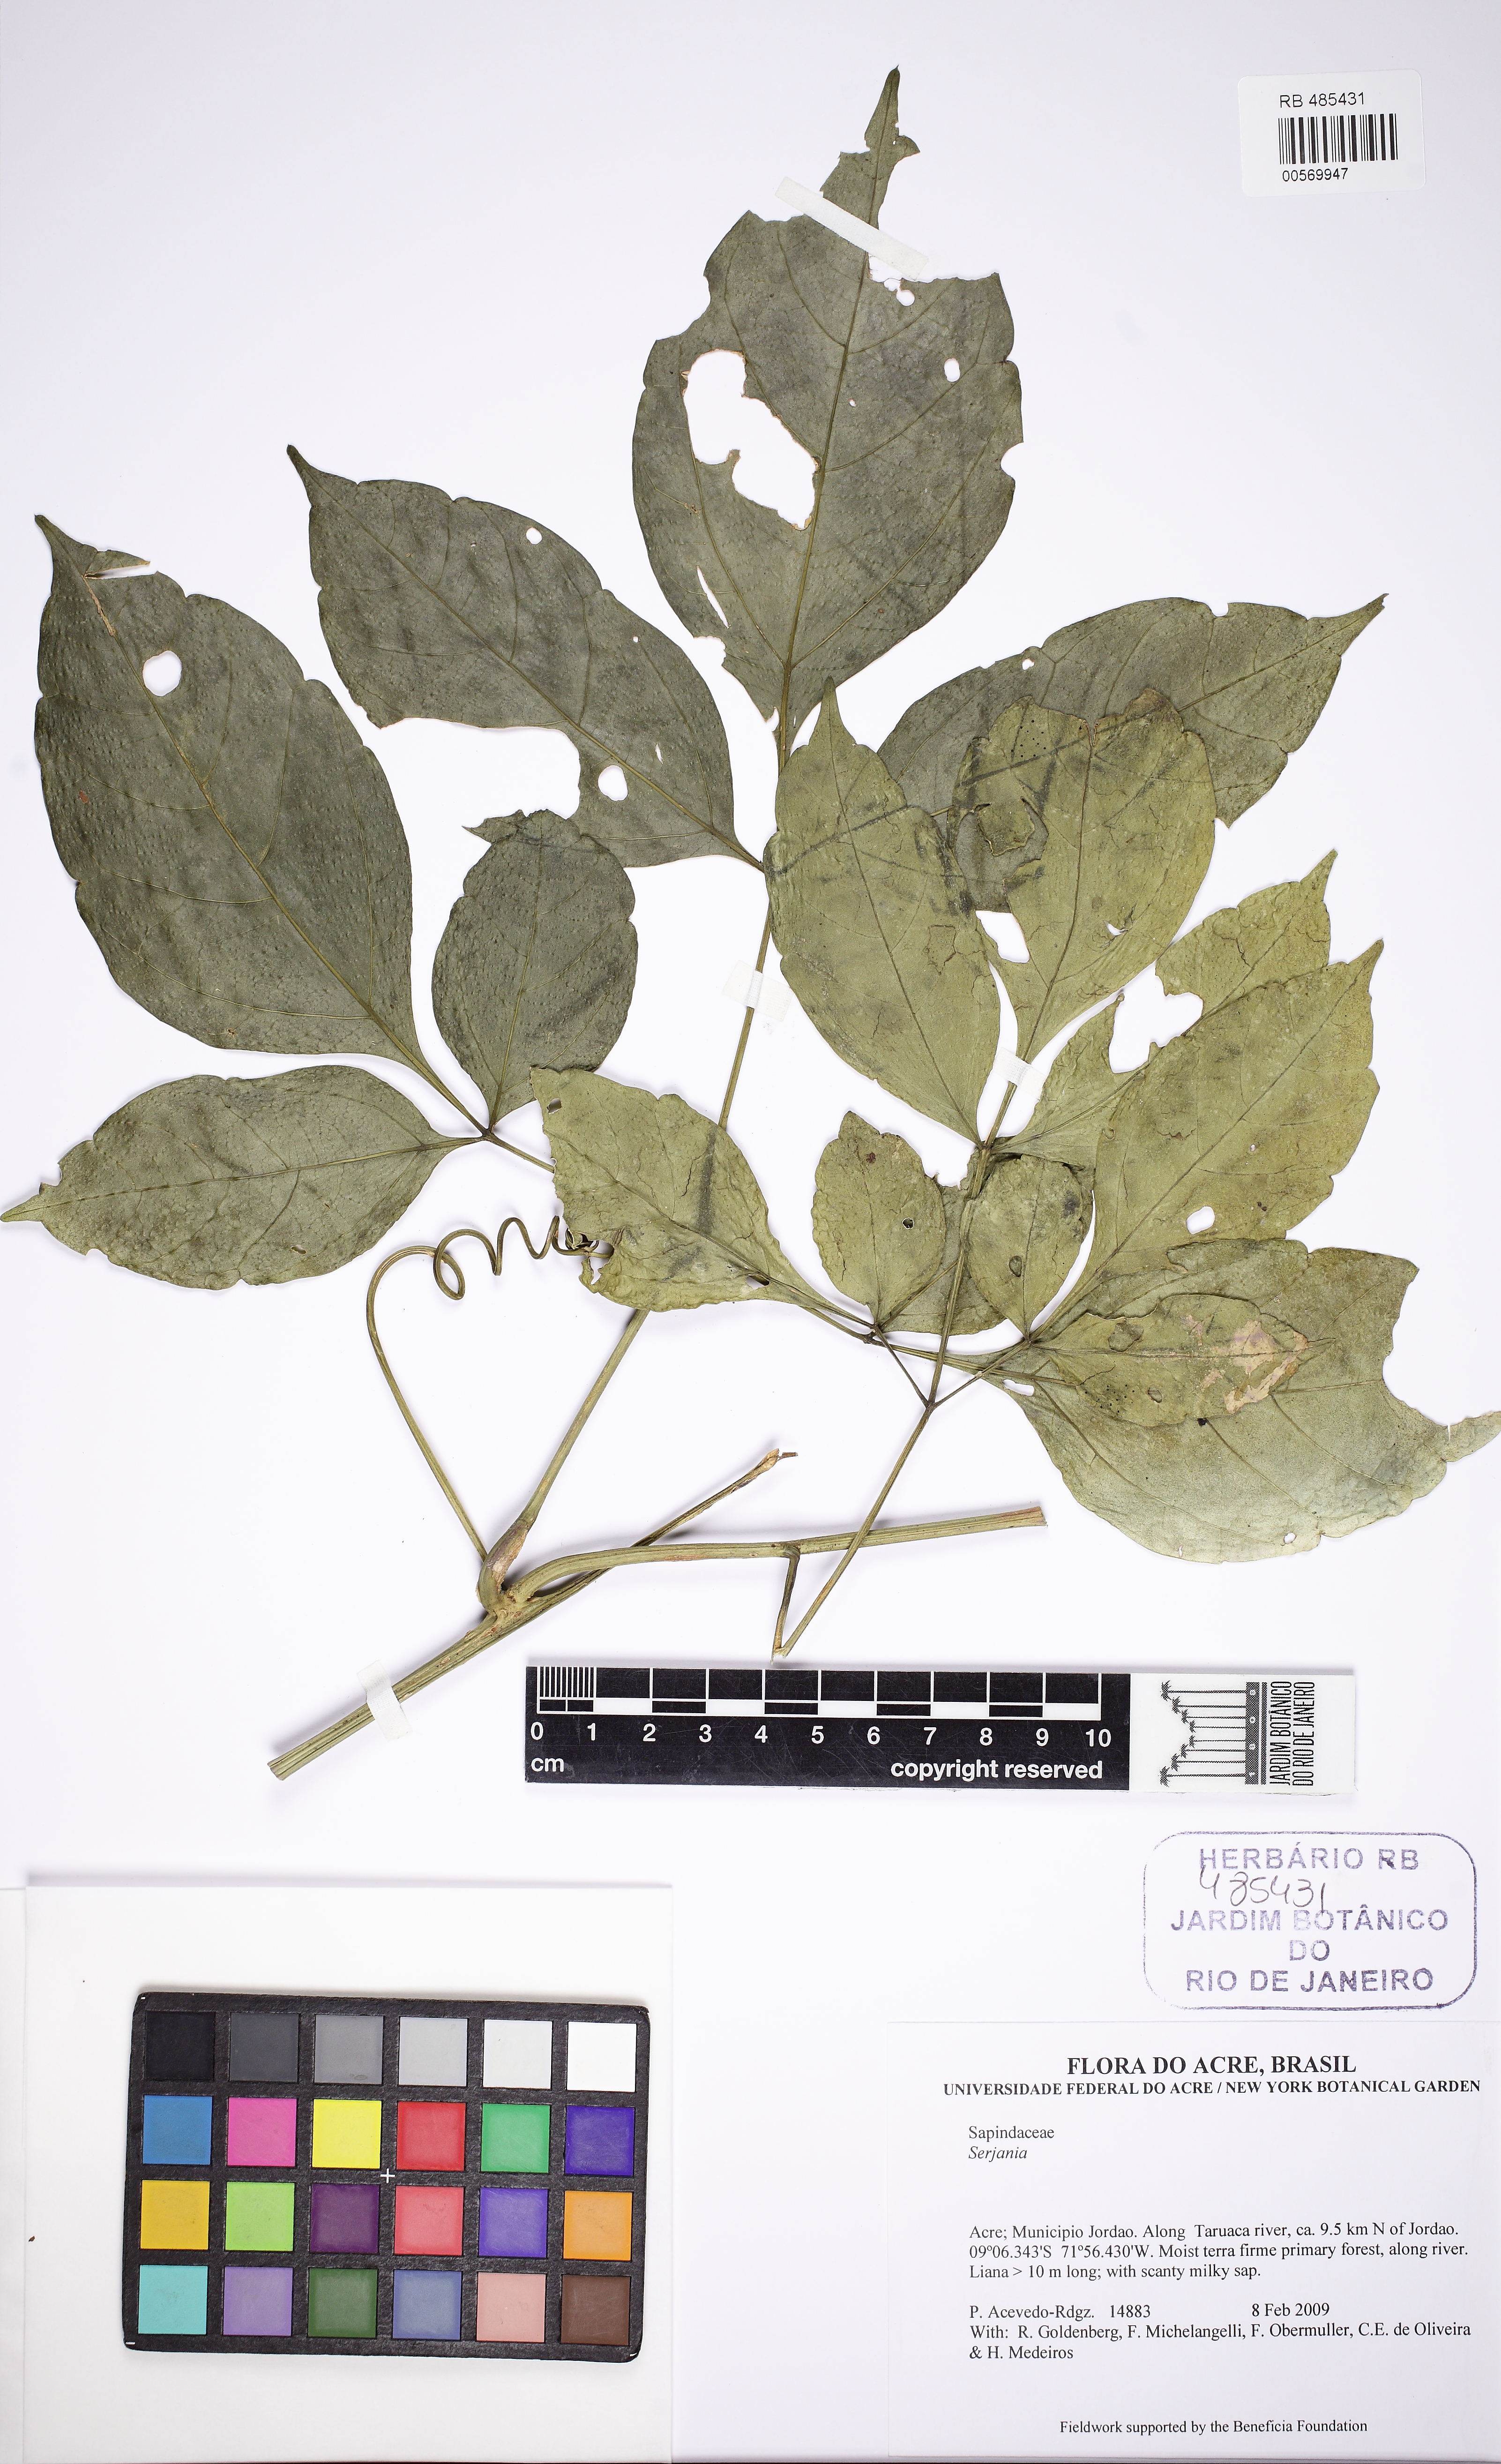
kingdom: Plantae
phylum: Tracheophyta
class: Magnoliopsida
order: Sapindales
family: Sapindaceae
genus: Serjania
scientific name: Serjania leptocarpa
